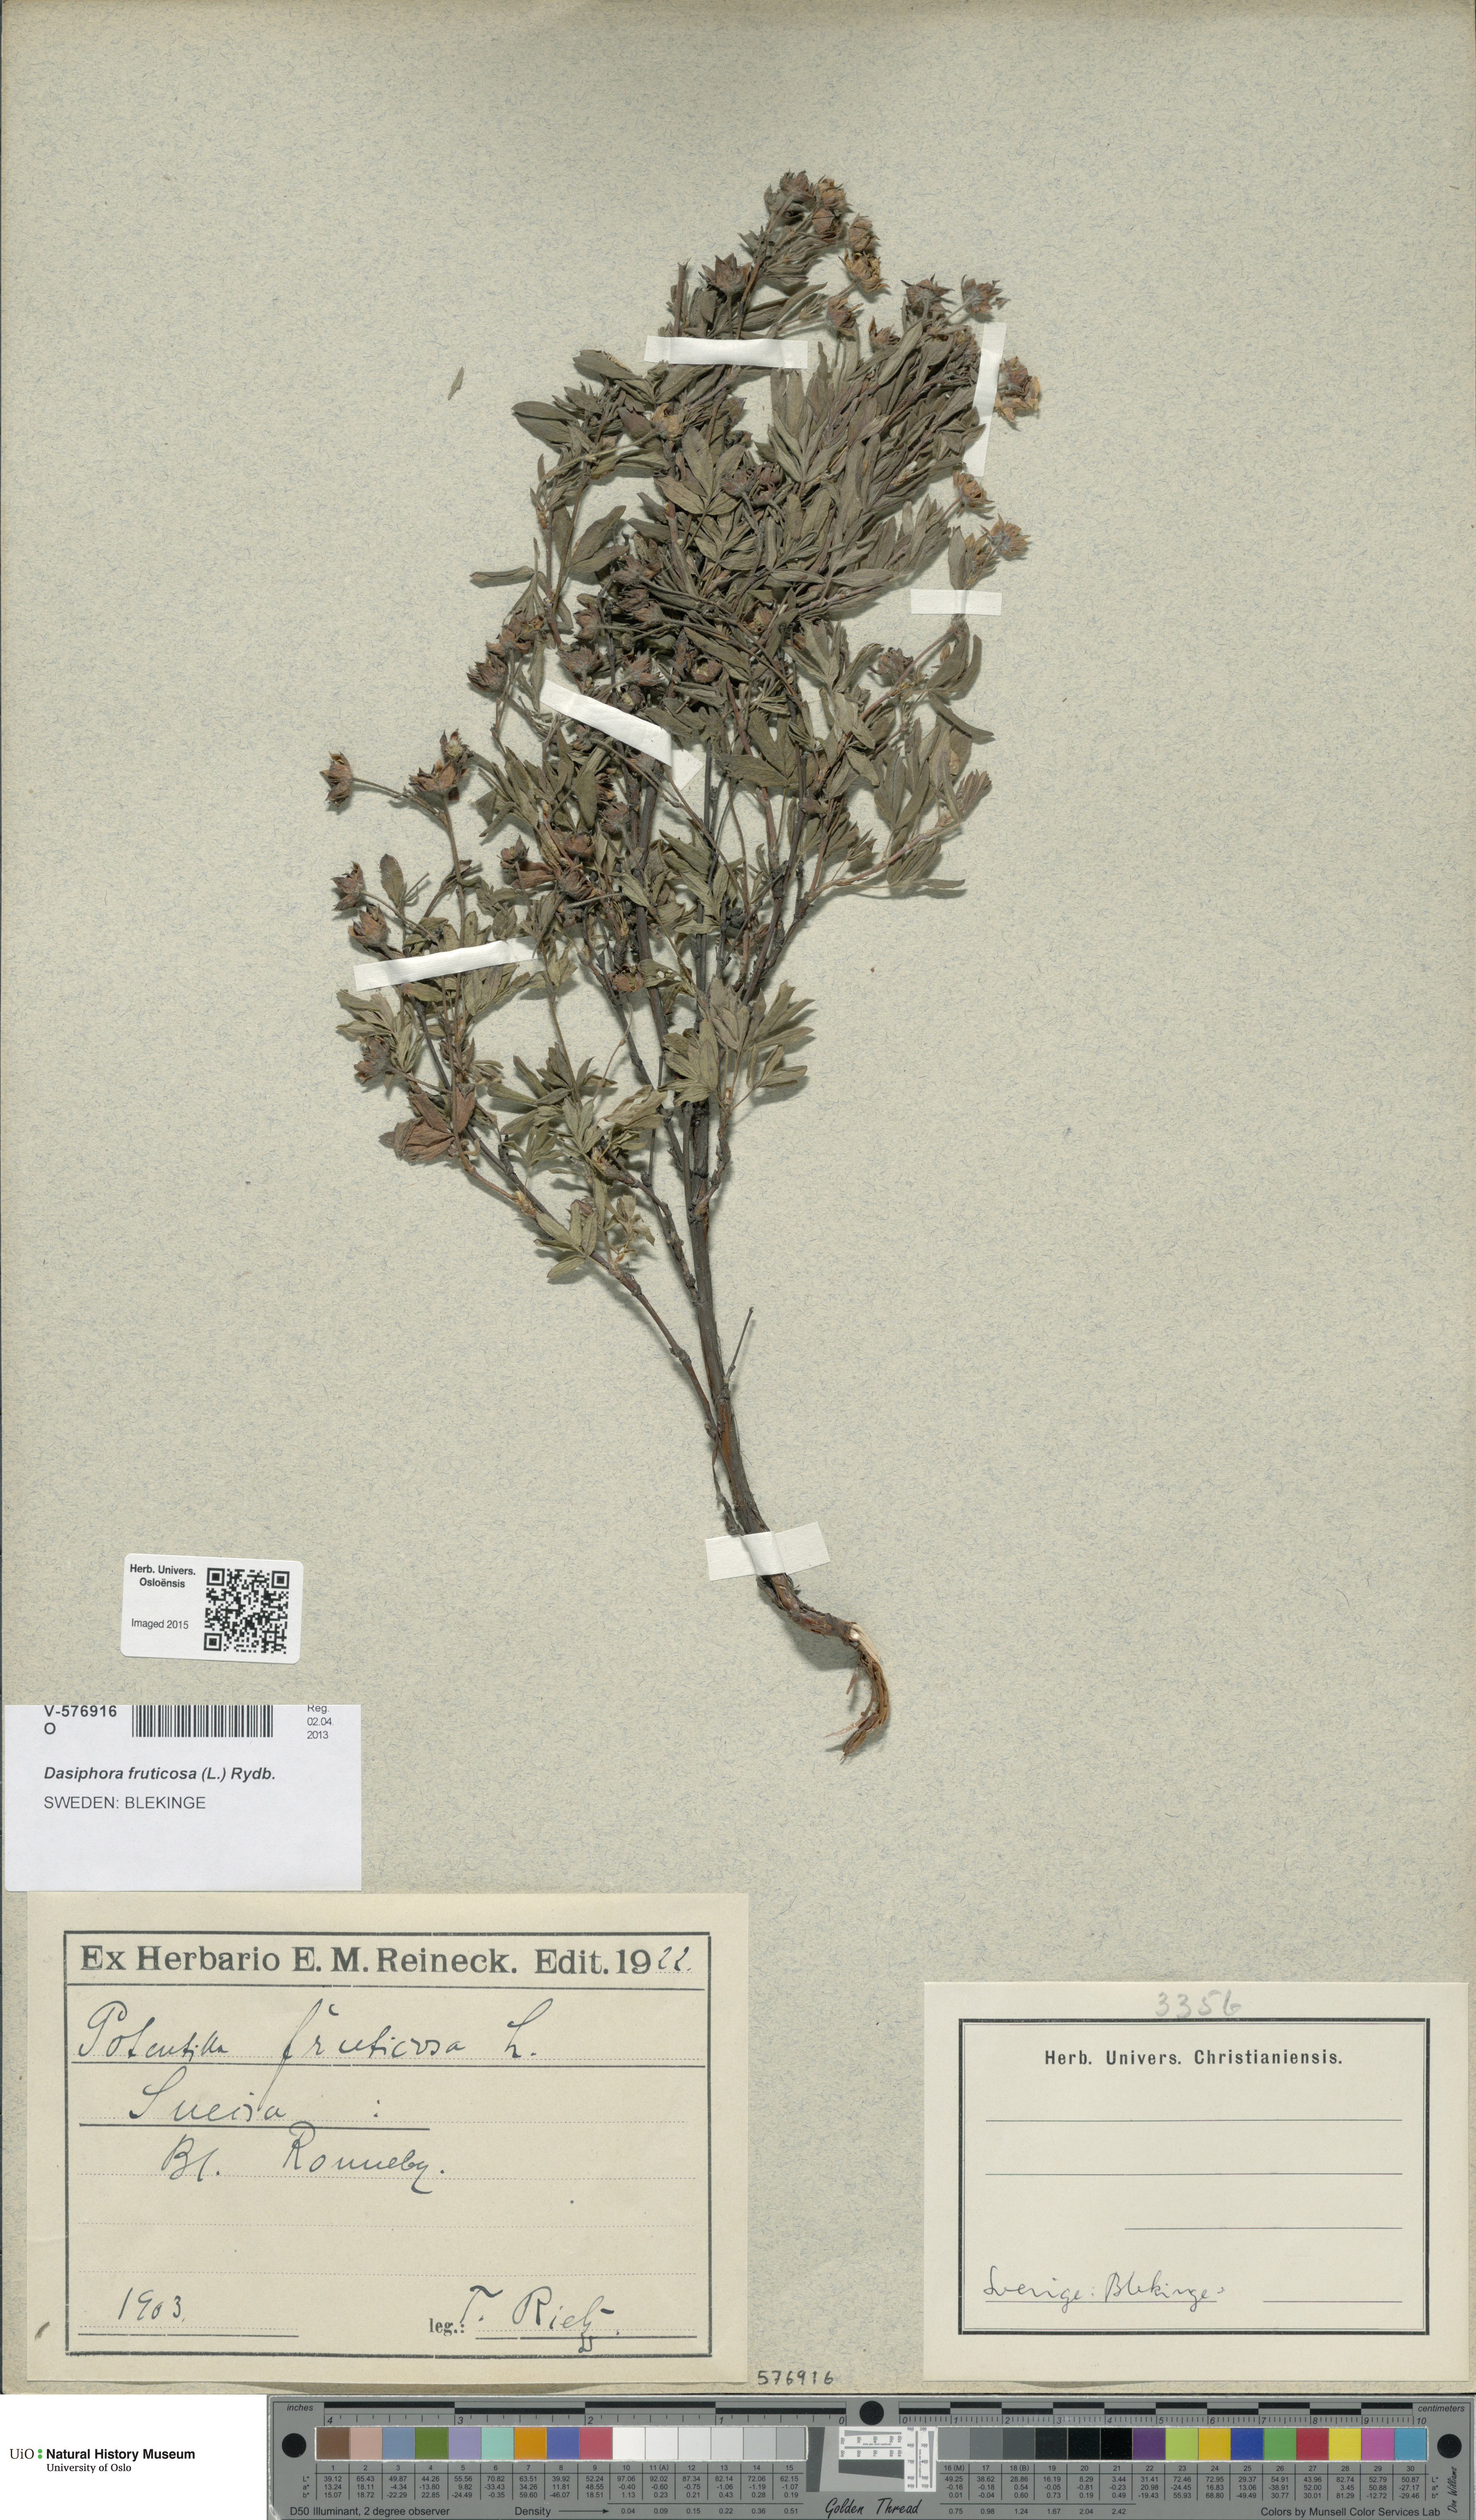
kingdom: Plantae
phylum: Tracheophyta
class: Magnoliopsida
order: Rosales
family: Rosaceae
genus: Dasiphora
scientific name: Dasiphora fruticosa
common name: Shrubby cinquefoil
